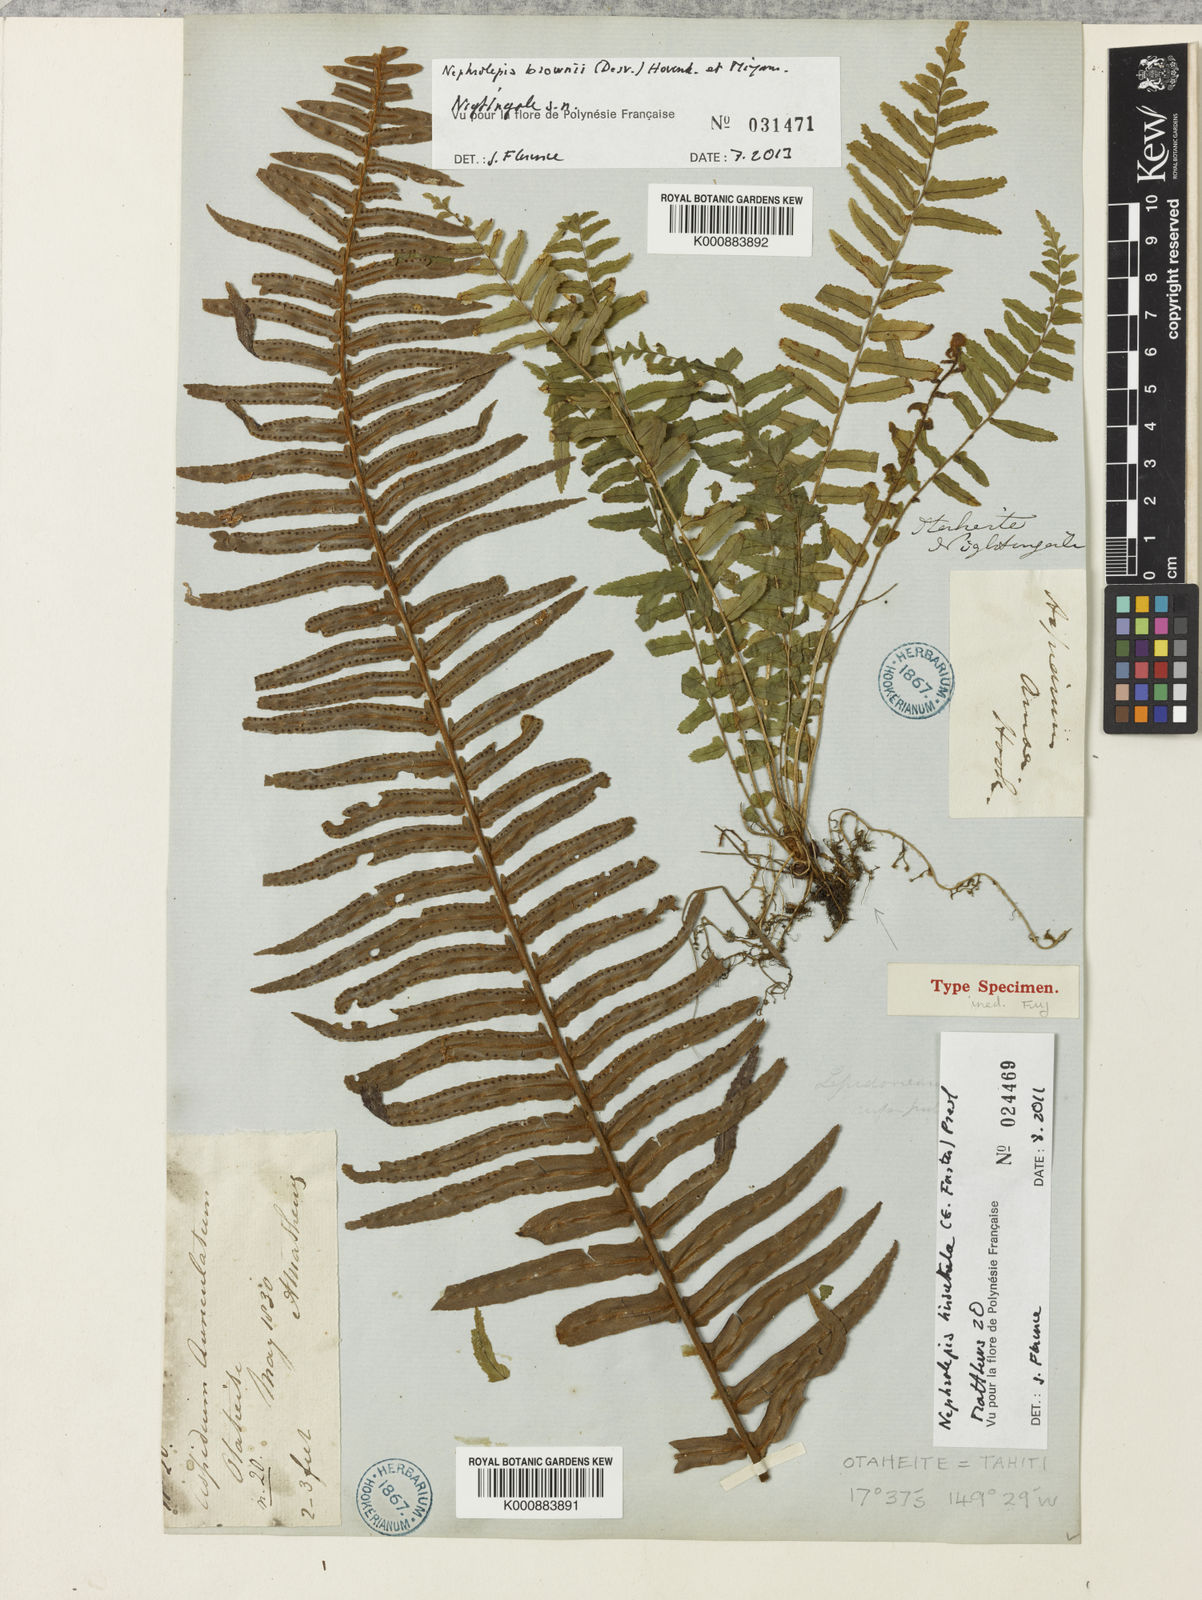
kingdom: Plantae
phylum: Tracheophyta
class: Polypodiopsida
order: Polypodiales
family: Nephrolepidaceae
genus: Nephrolepis
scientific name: Nephrolepis hirsutula
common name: Asian sword fern
